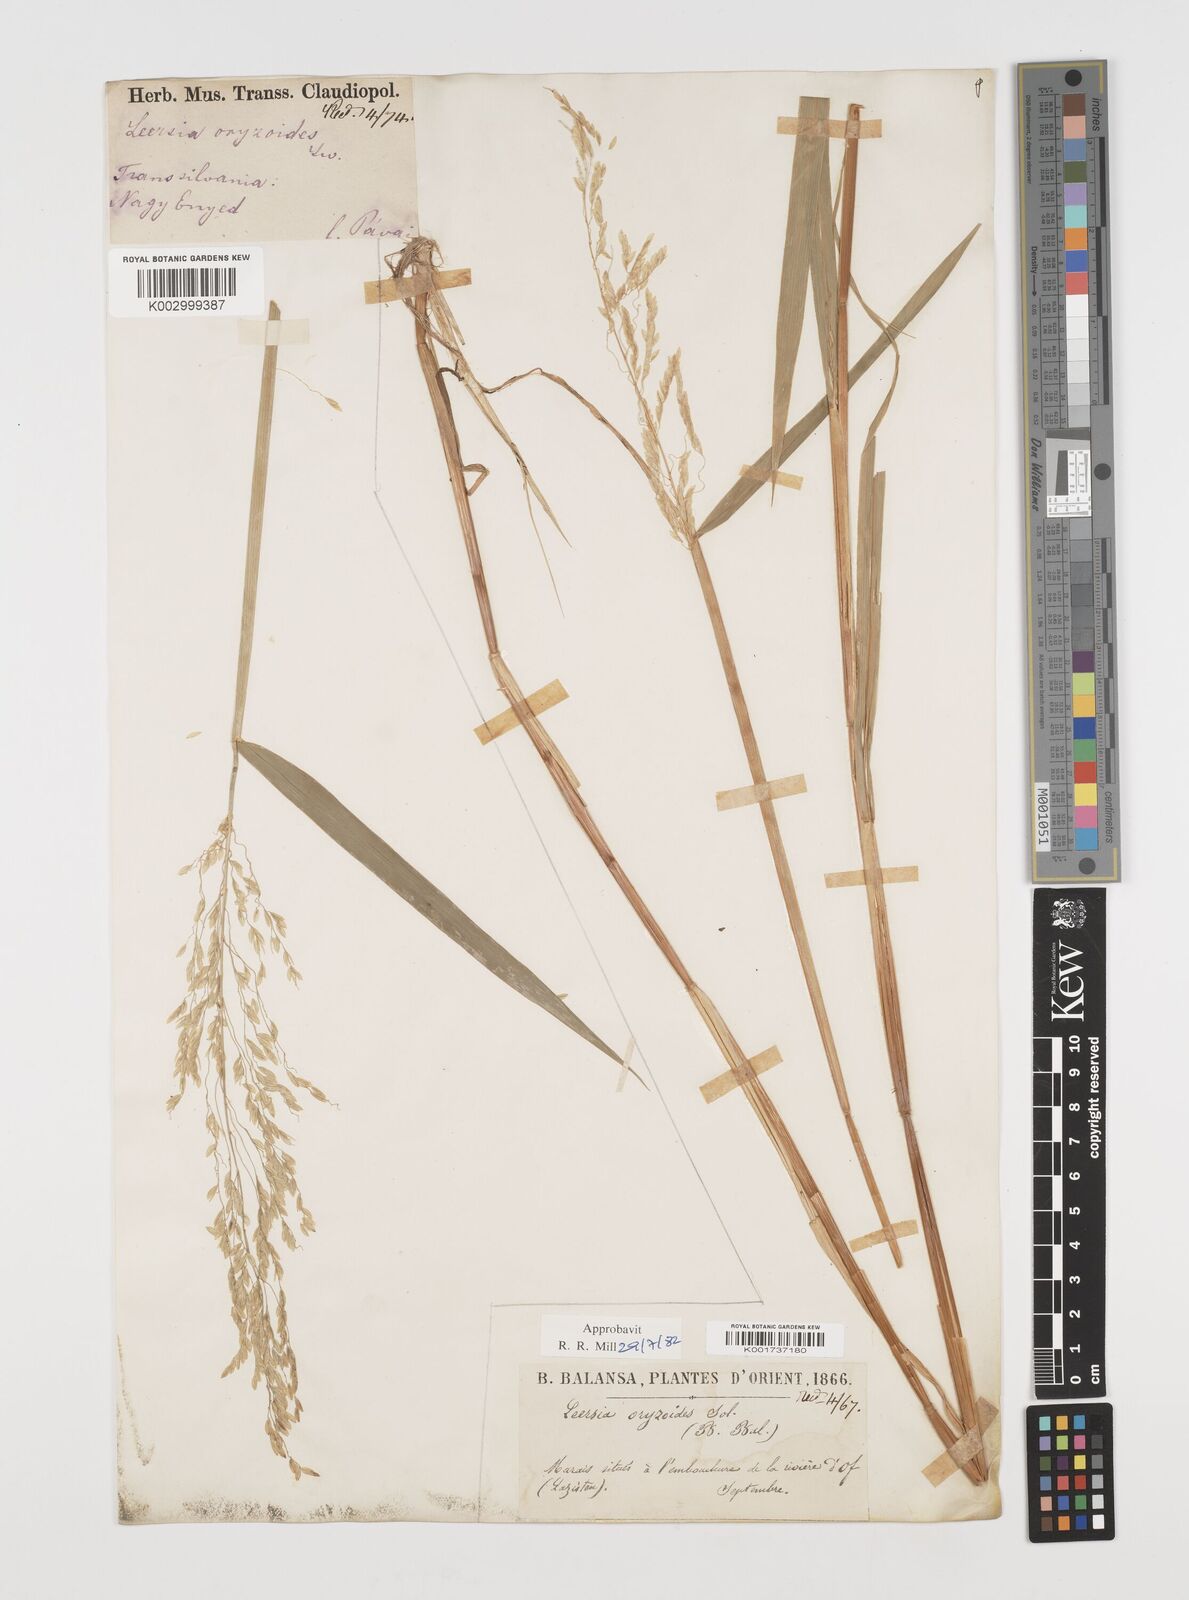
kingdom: Plantae
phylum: Tracheophyta
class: Liliopsida
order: Poales
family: Poaceae
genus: Leersia
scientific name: Leersia oryzoides
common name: Cut-grass
